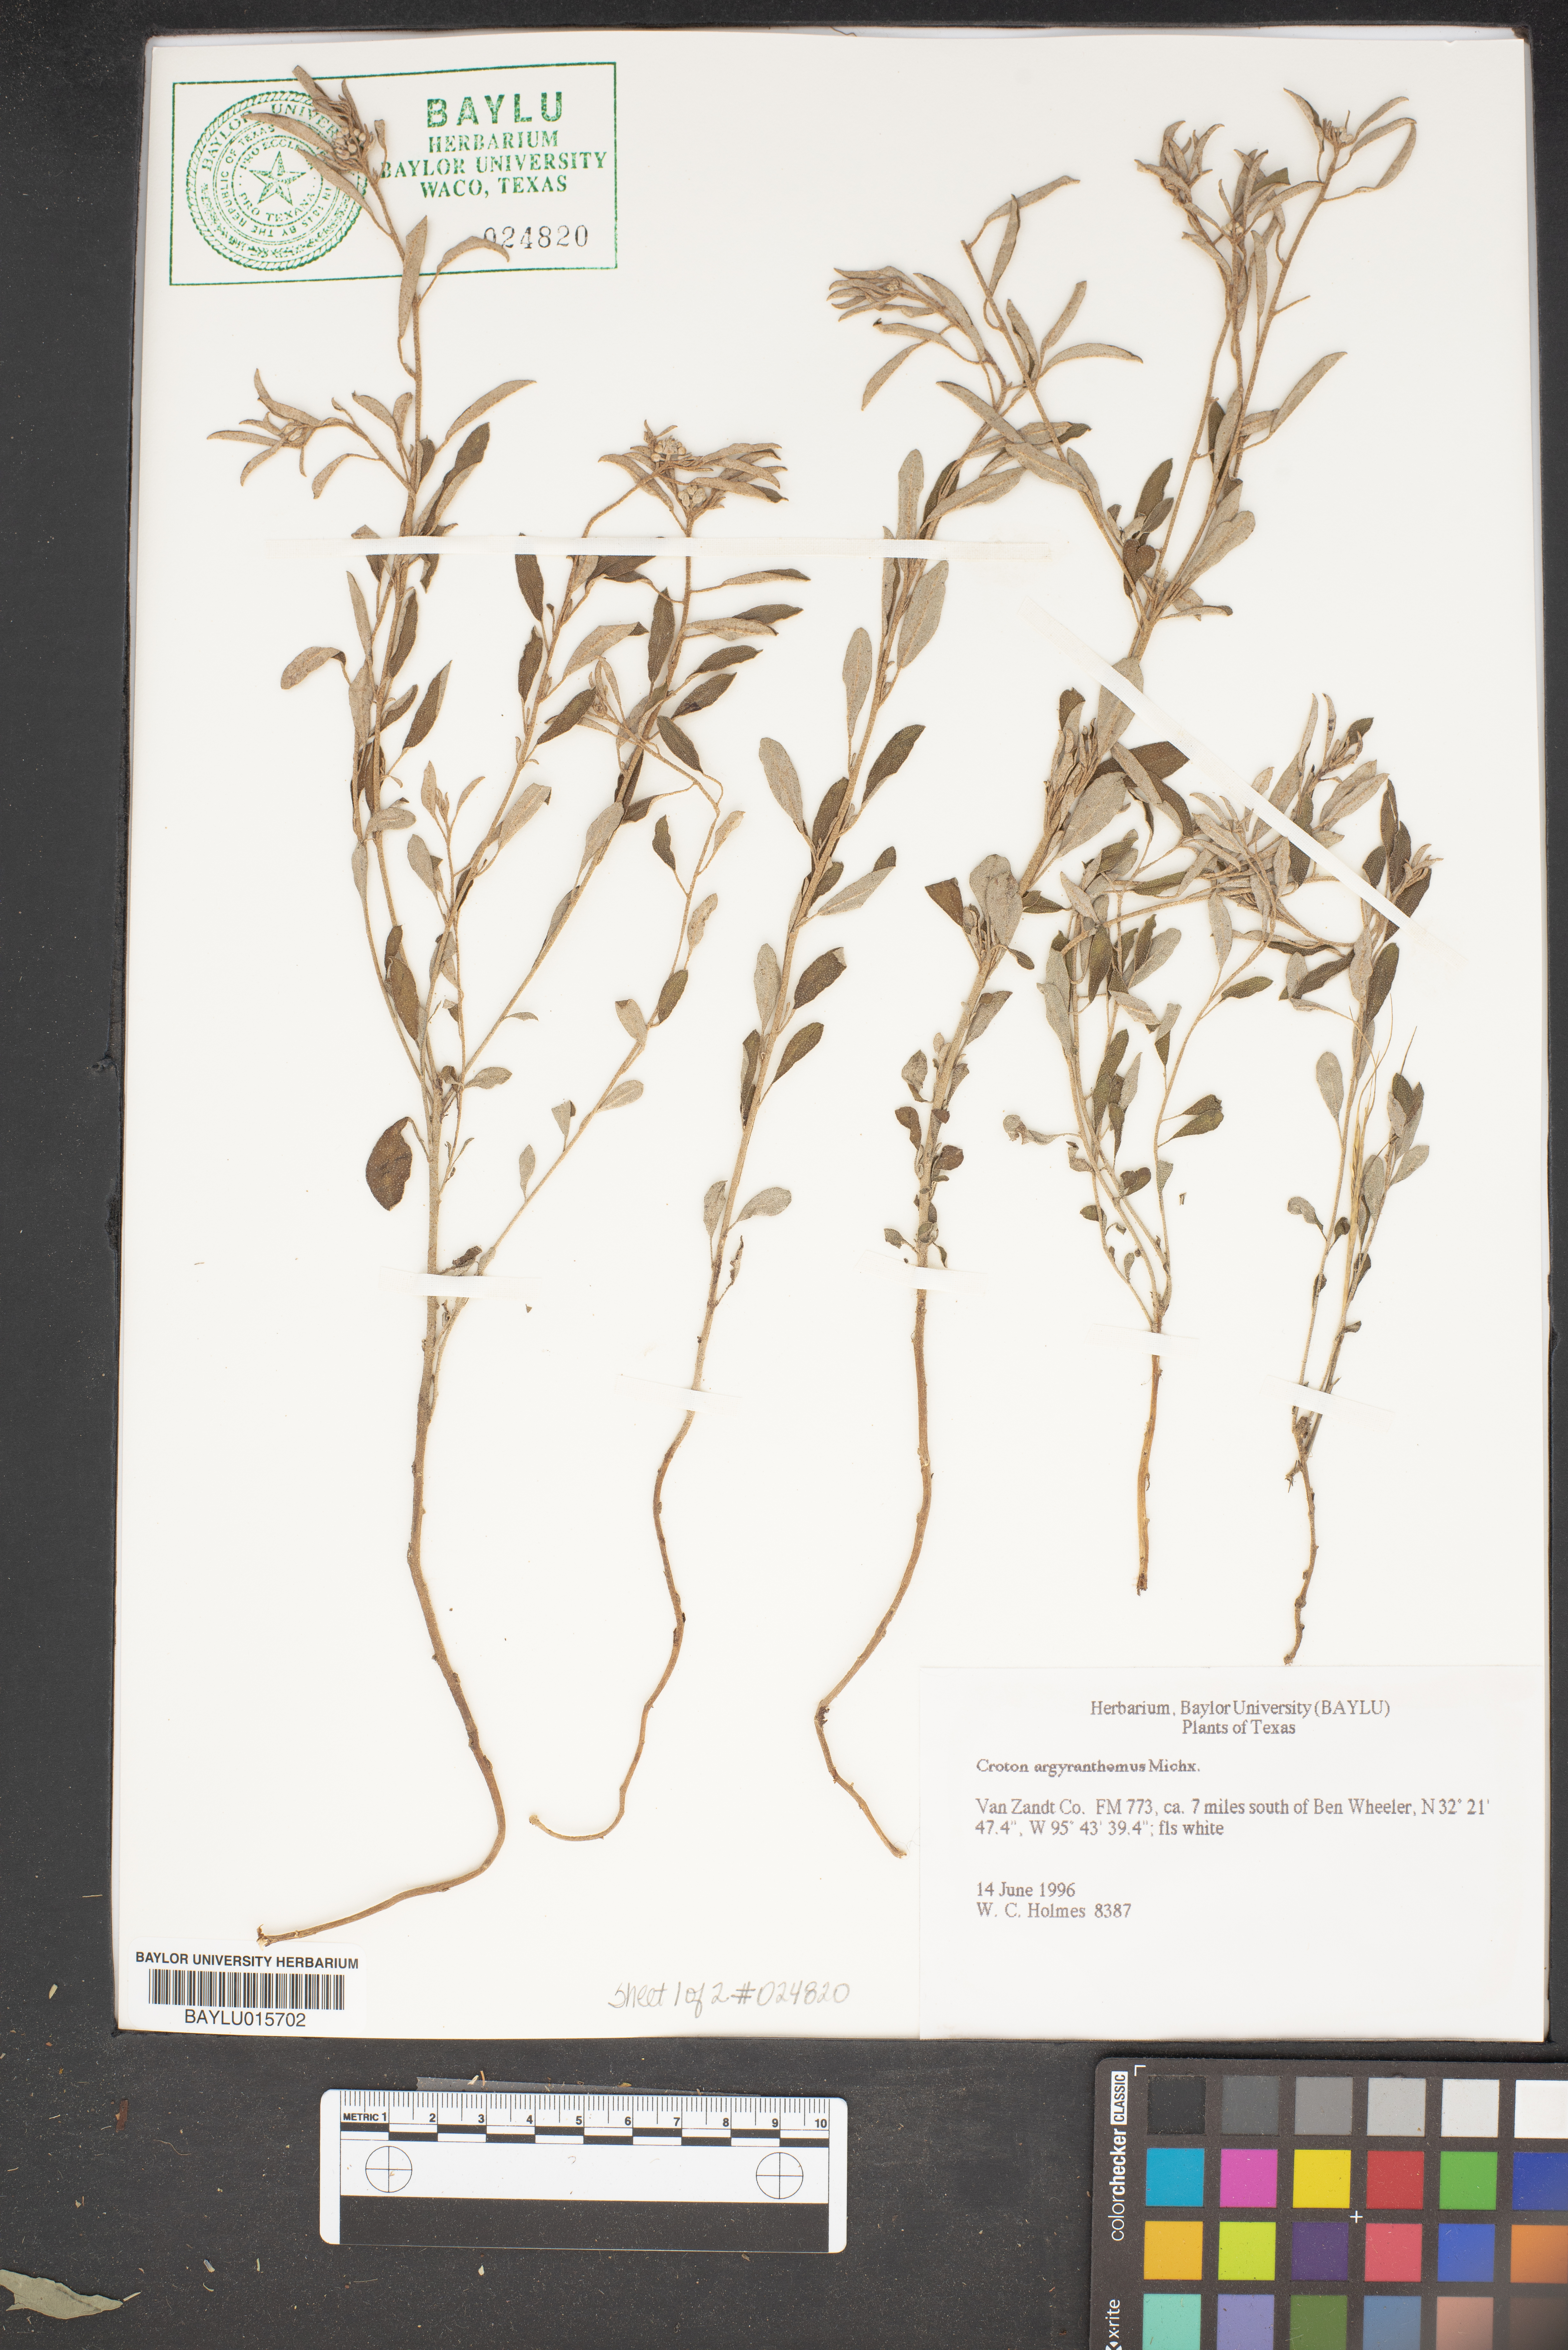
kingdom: Plantae
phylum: Tracheophyta
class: Magnoliopsida
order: Malpighiales
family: Euphorbiaceae
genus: Croton
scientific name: Croton argyranthemus
